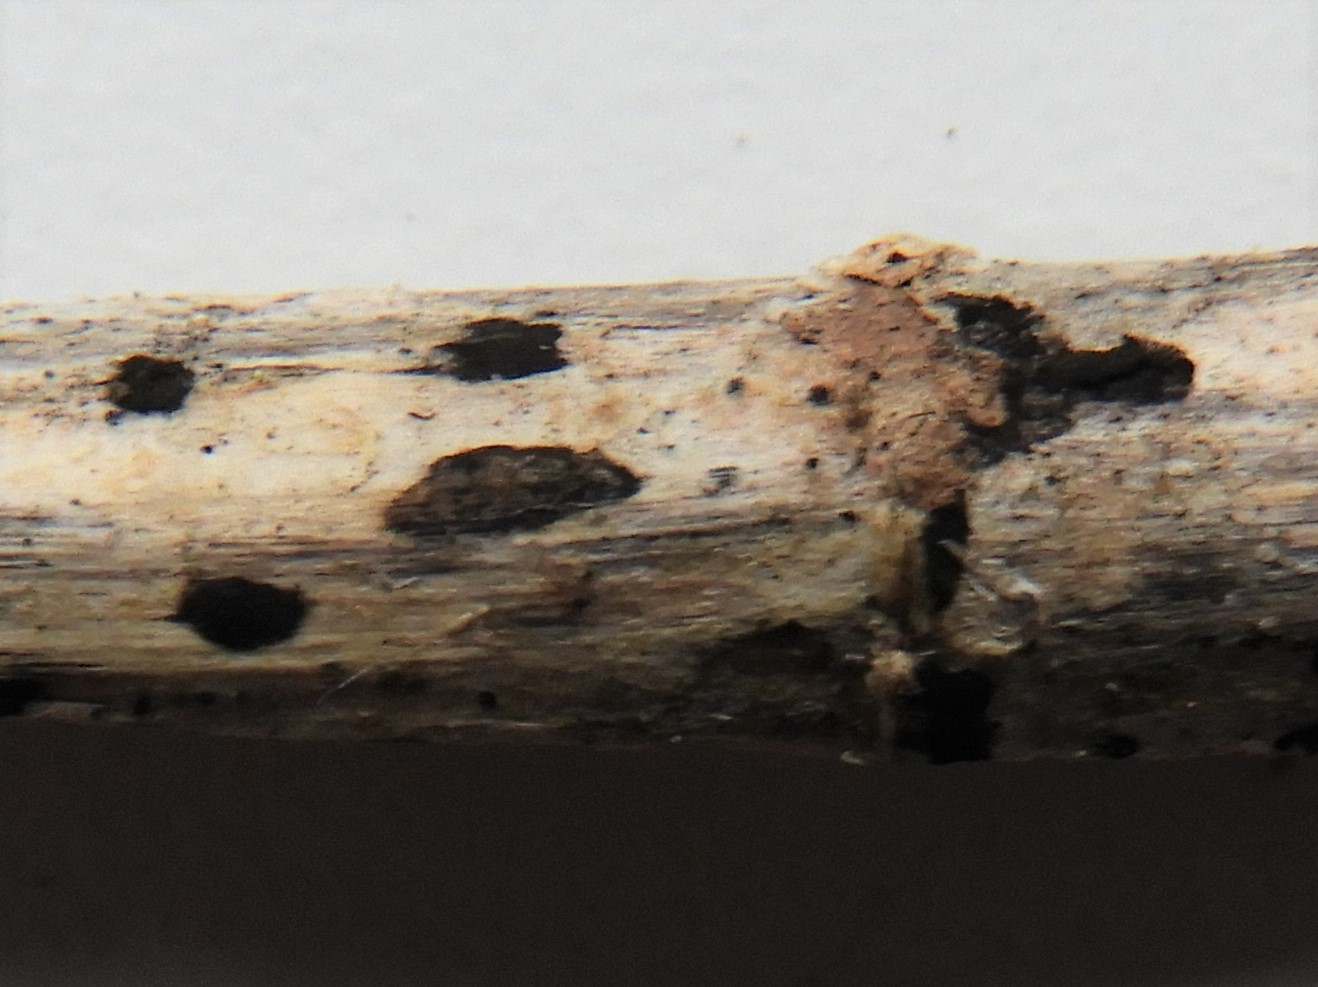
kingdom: Fungi
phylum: Ascomycota
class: Dothideomycetes
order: Pleosporales
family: Torulaceae
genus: Torula
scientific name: Torula herbarum
